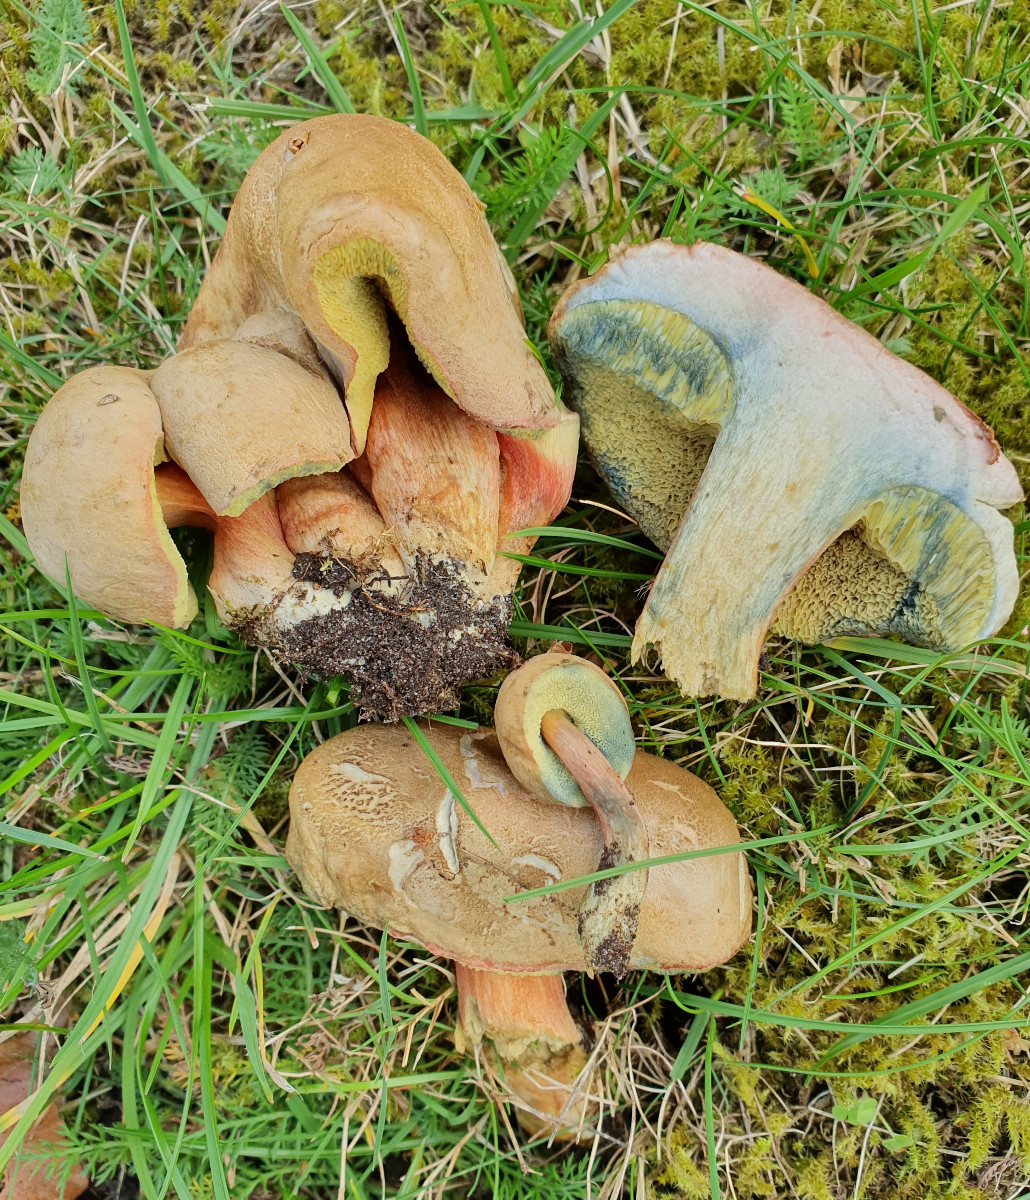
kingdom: Fungi
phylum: Basidiomycota
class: Agaricomycetes
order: Boletales
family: Boletaceae
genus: Hortiboletus
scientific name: Hortiboletus bubalinus
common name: aurora-rørhat
